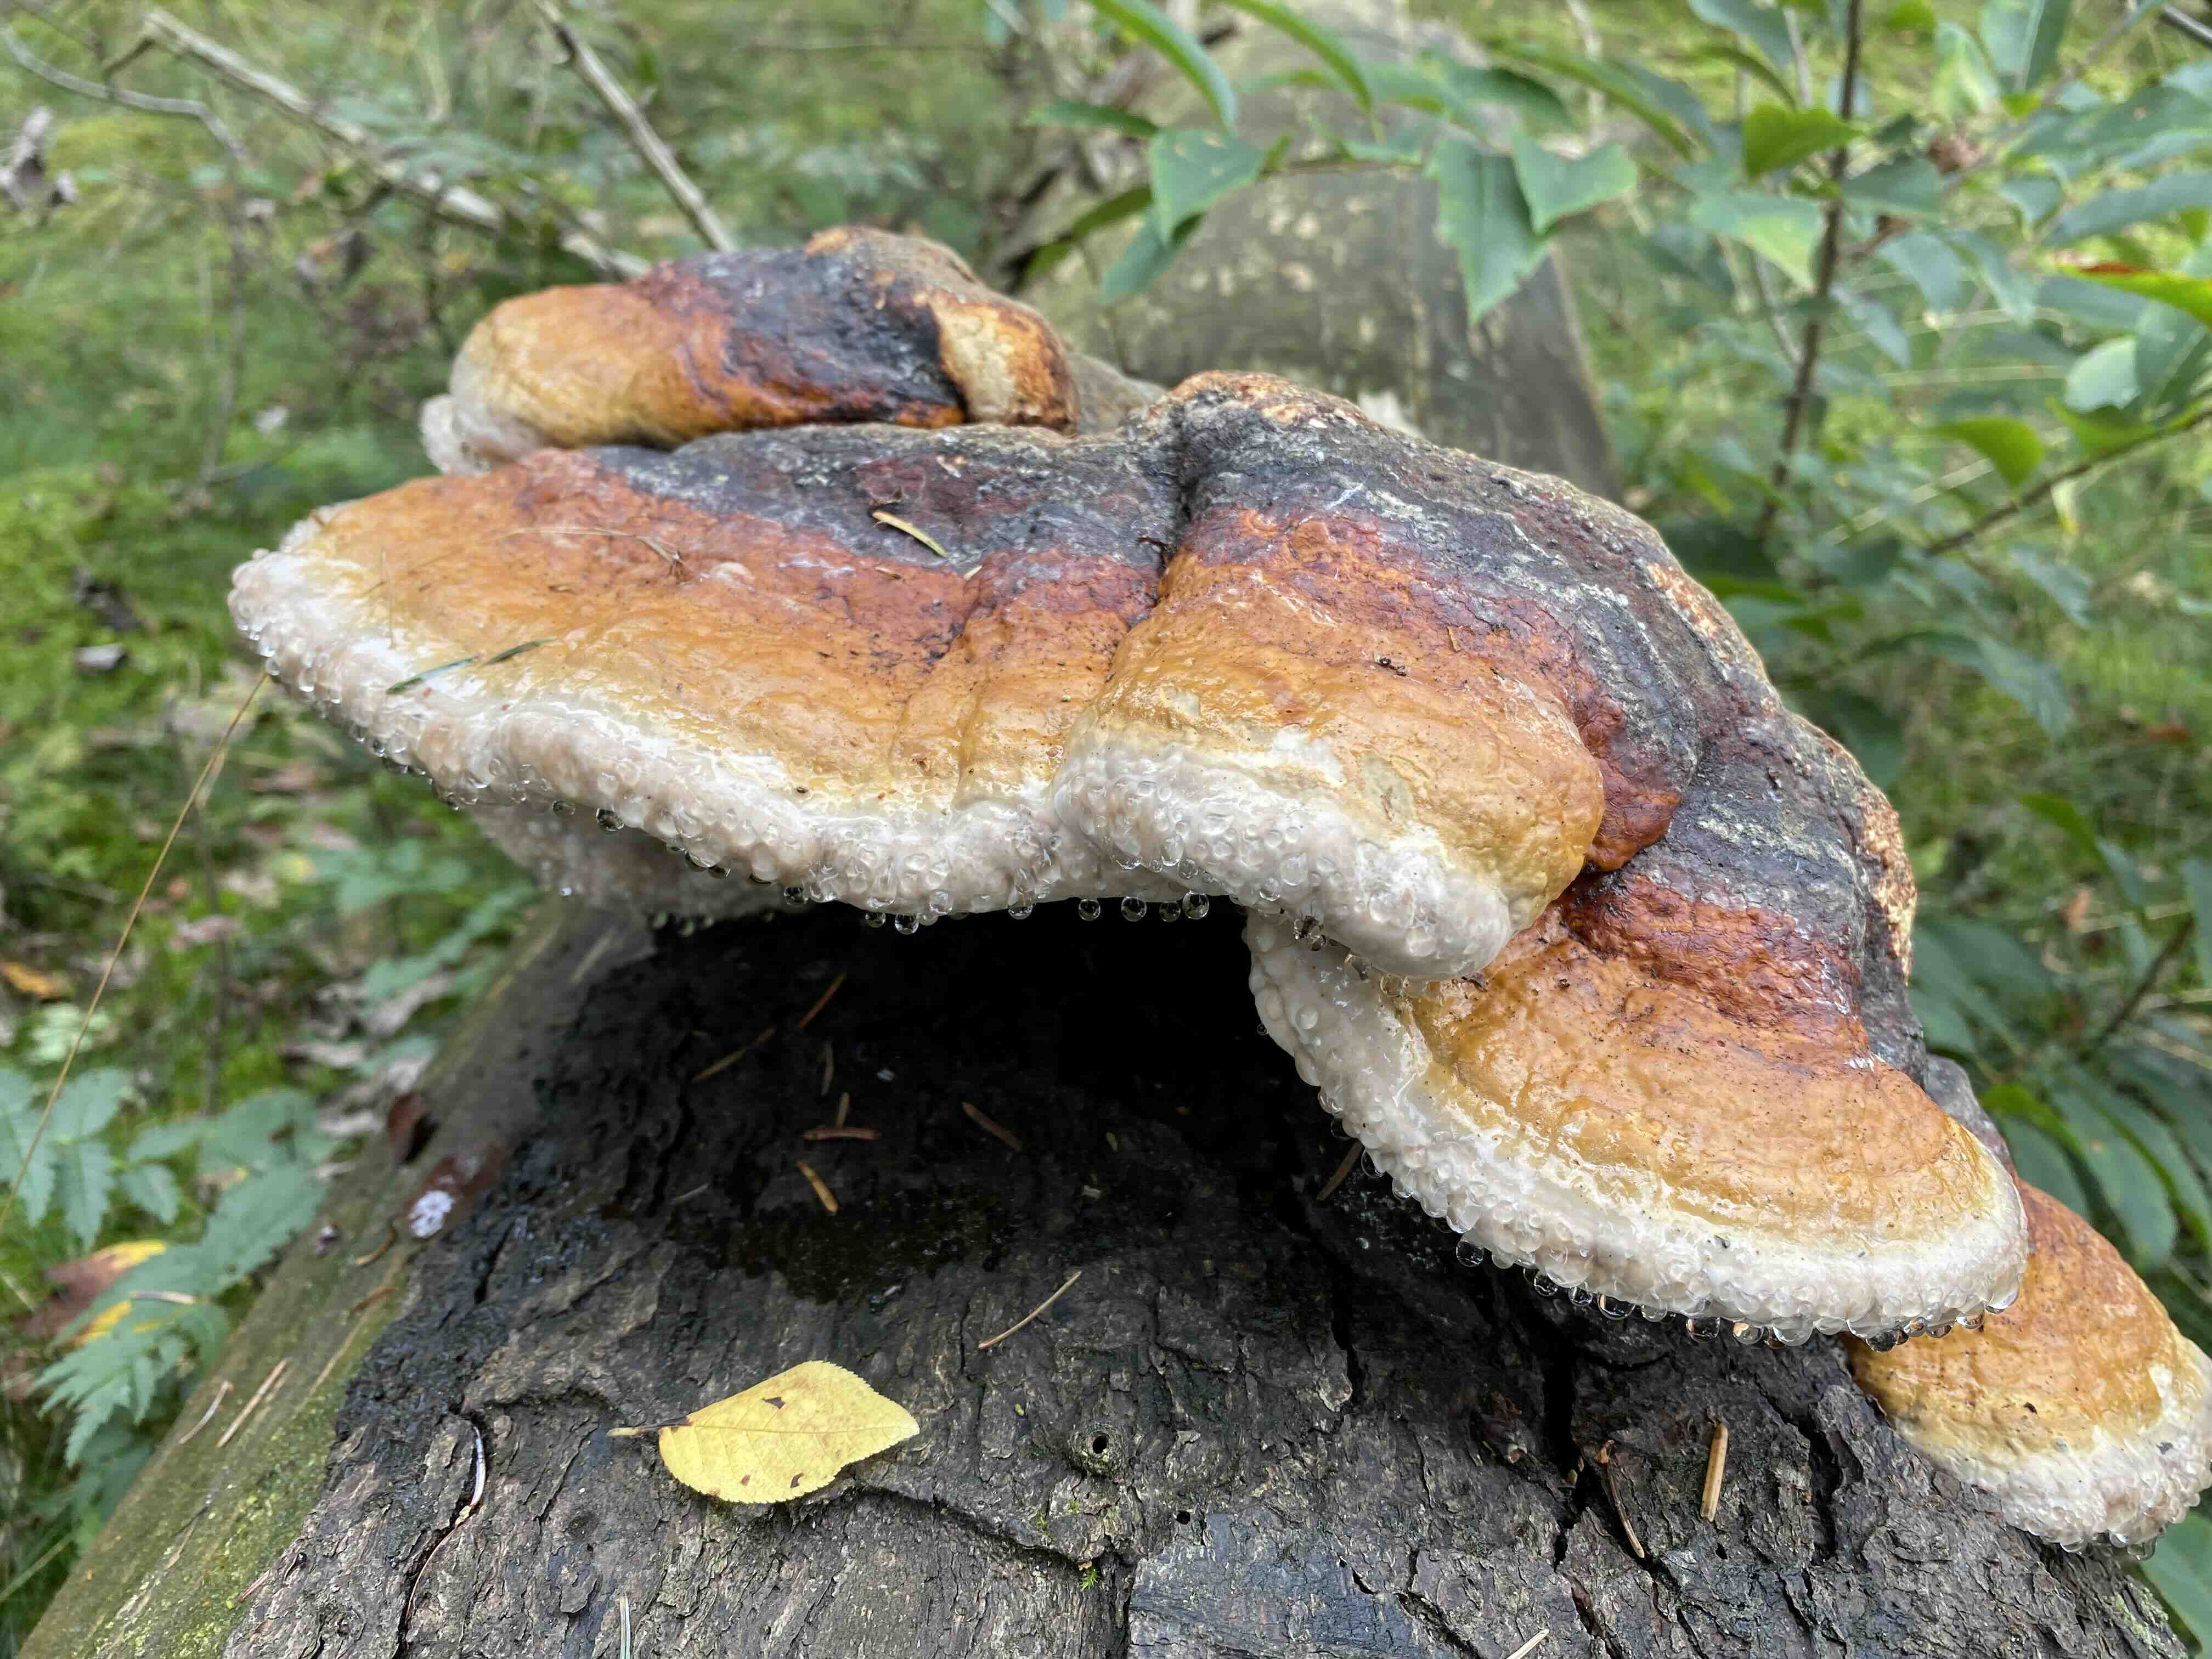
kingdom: Fungi
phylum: Basidiomycota
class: Agaricomycetes
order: Polyporales
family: Fomitopsidaceae
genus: Fomitopsis
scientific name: Fomitopsis pinicola
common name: randbæltet hovporesvamp
